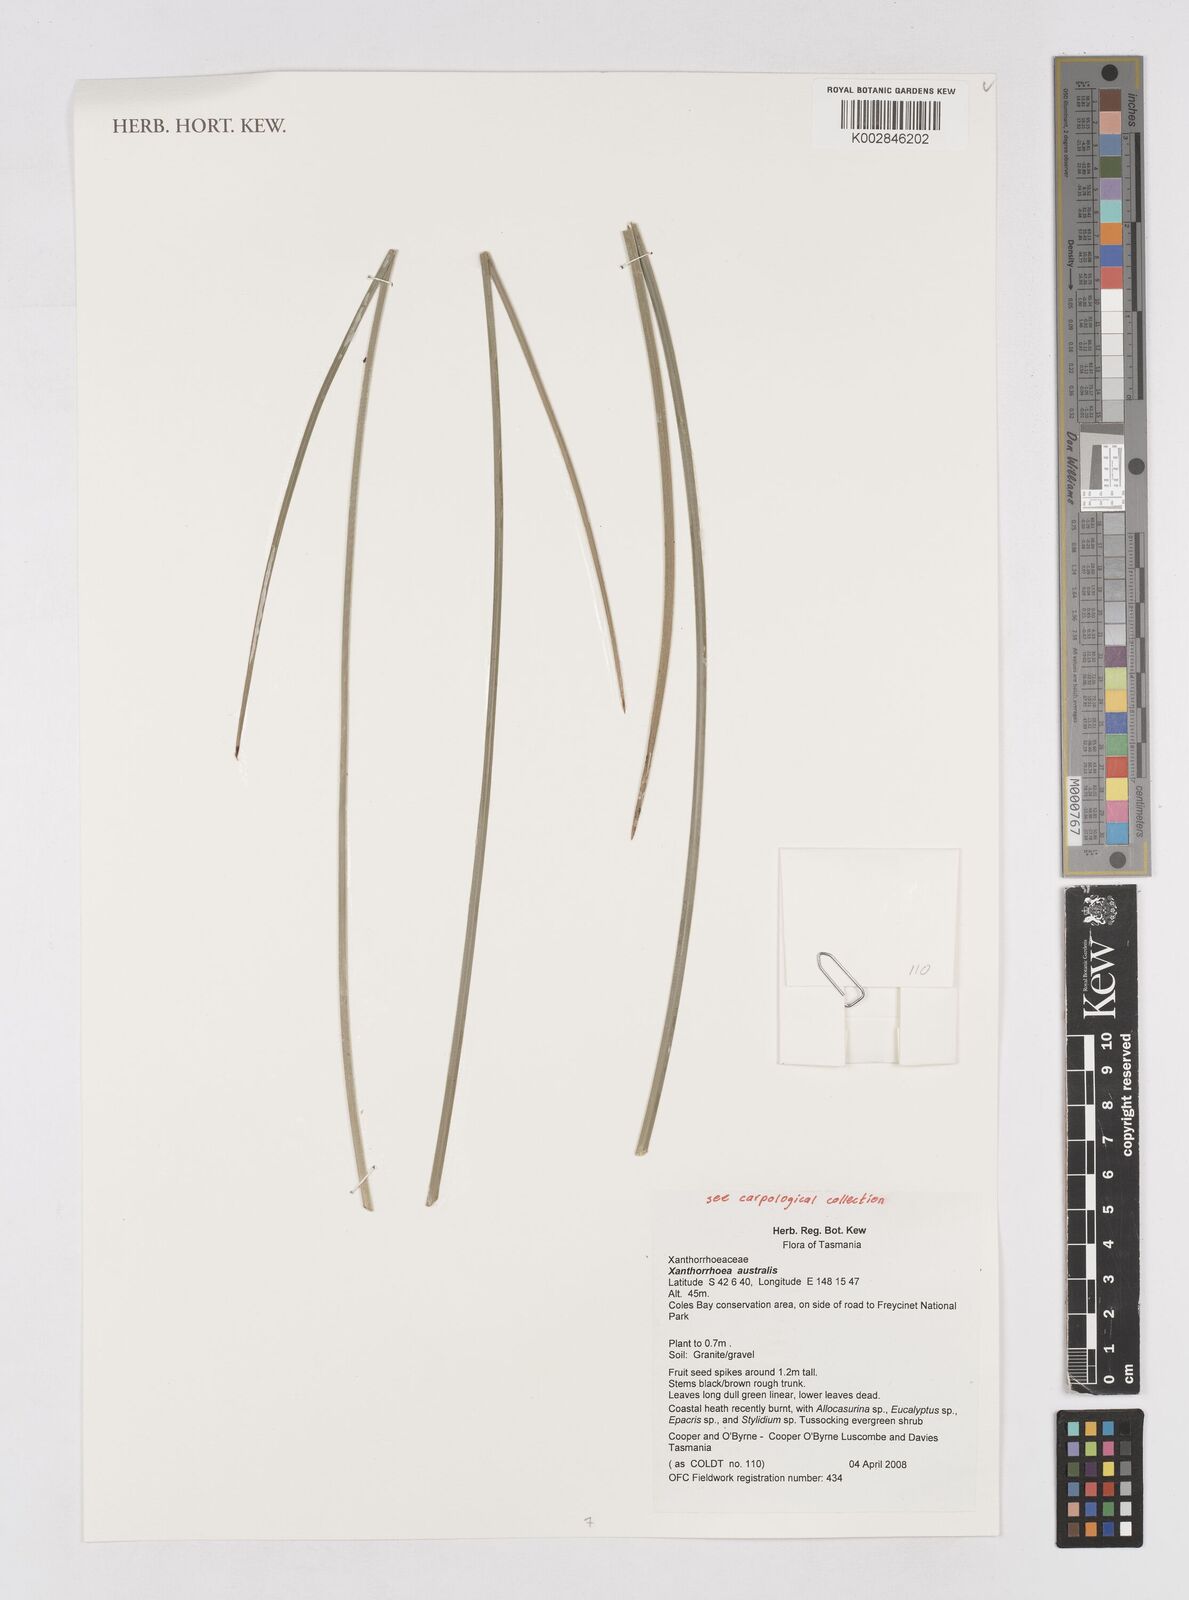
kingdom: Plantae
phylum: Tracheophyta
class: Liliopsida
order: Asparagales
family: Asphodelaceae
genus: Xanthorrhoea
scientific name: Xanthorrhoea australis
